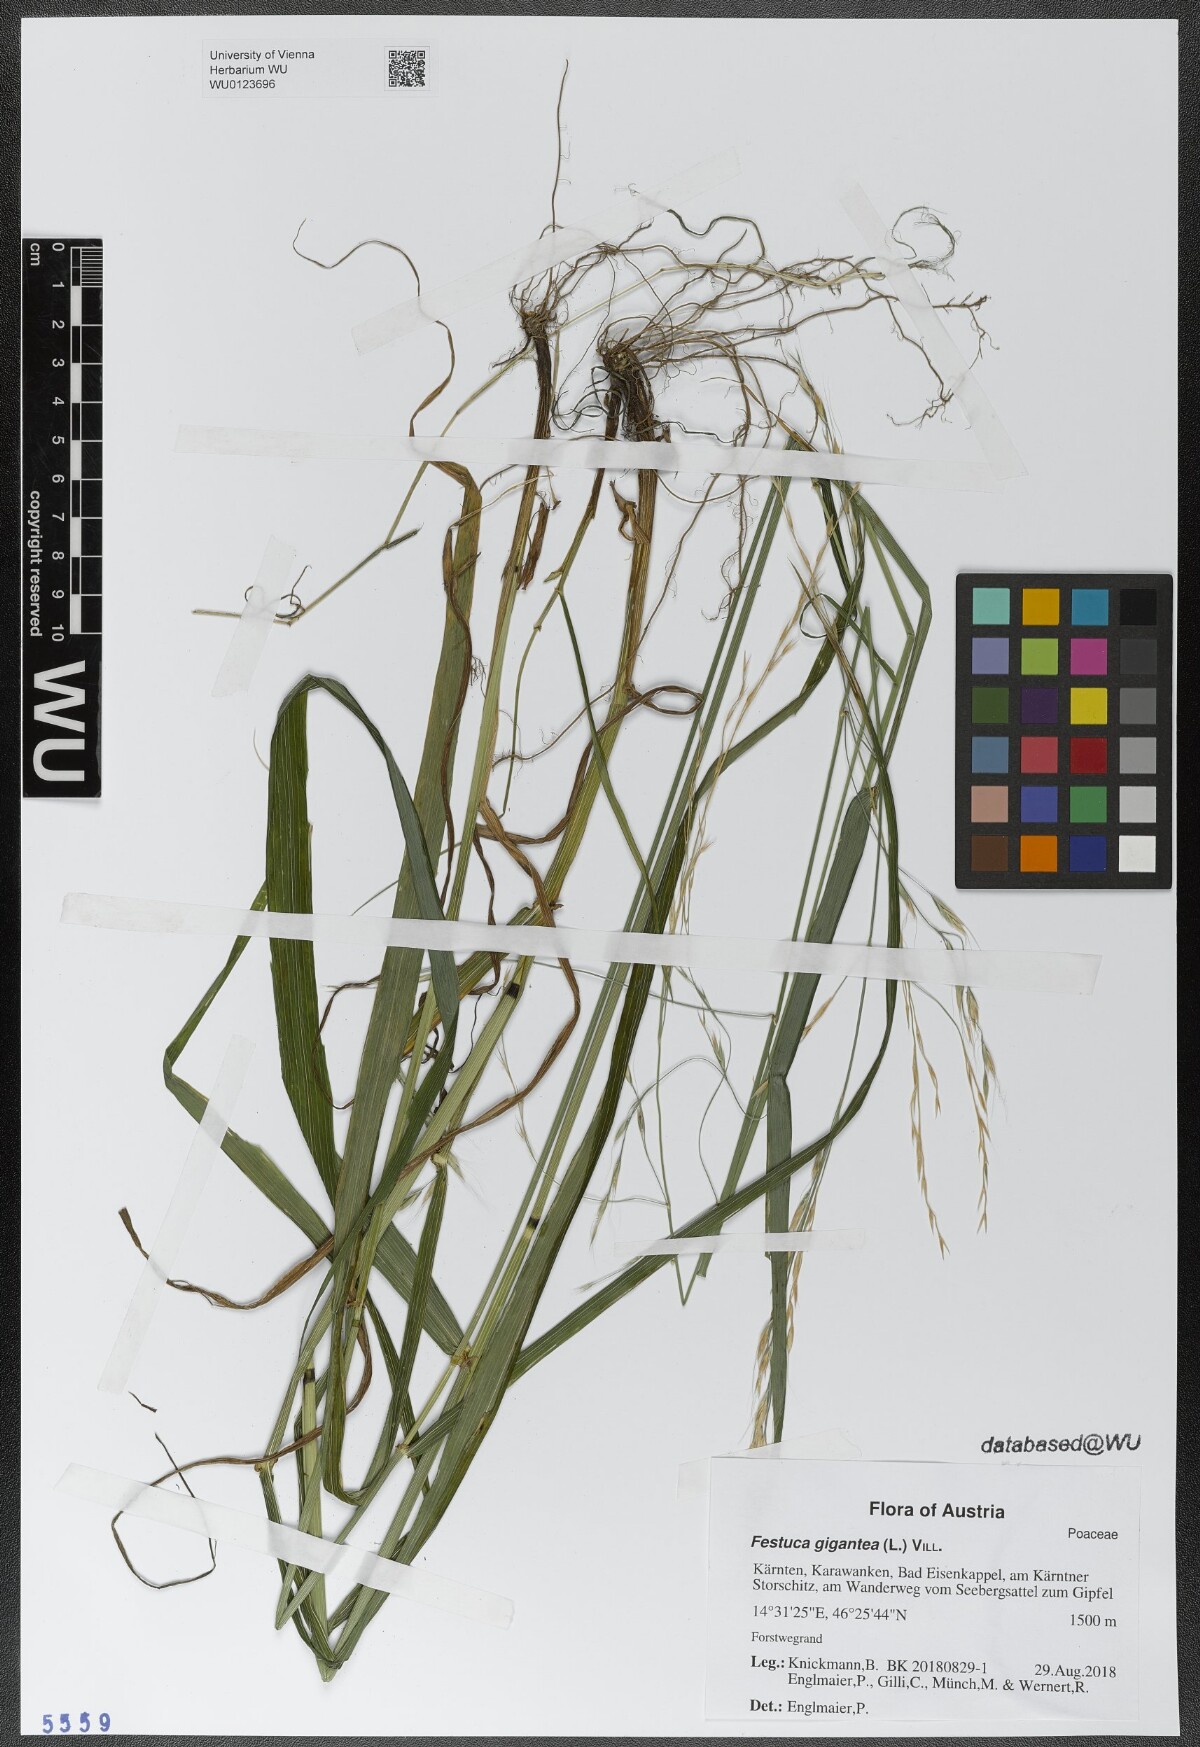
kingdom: Plantae
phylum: Tracheophyta
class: Liliopsida
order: Poales
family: Poaceae
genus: Lolium
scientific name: Lolium giganteum
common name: Giant fescue
